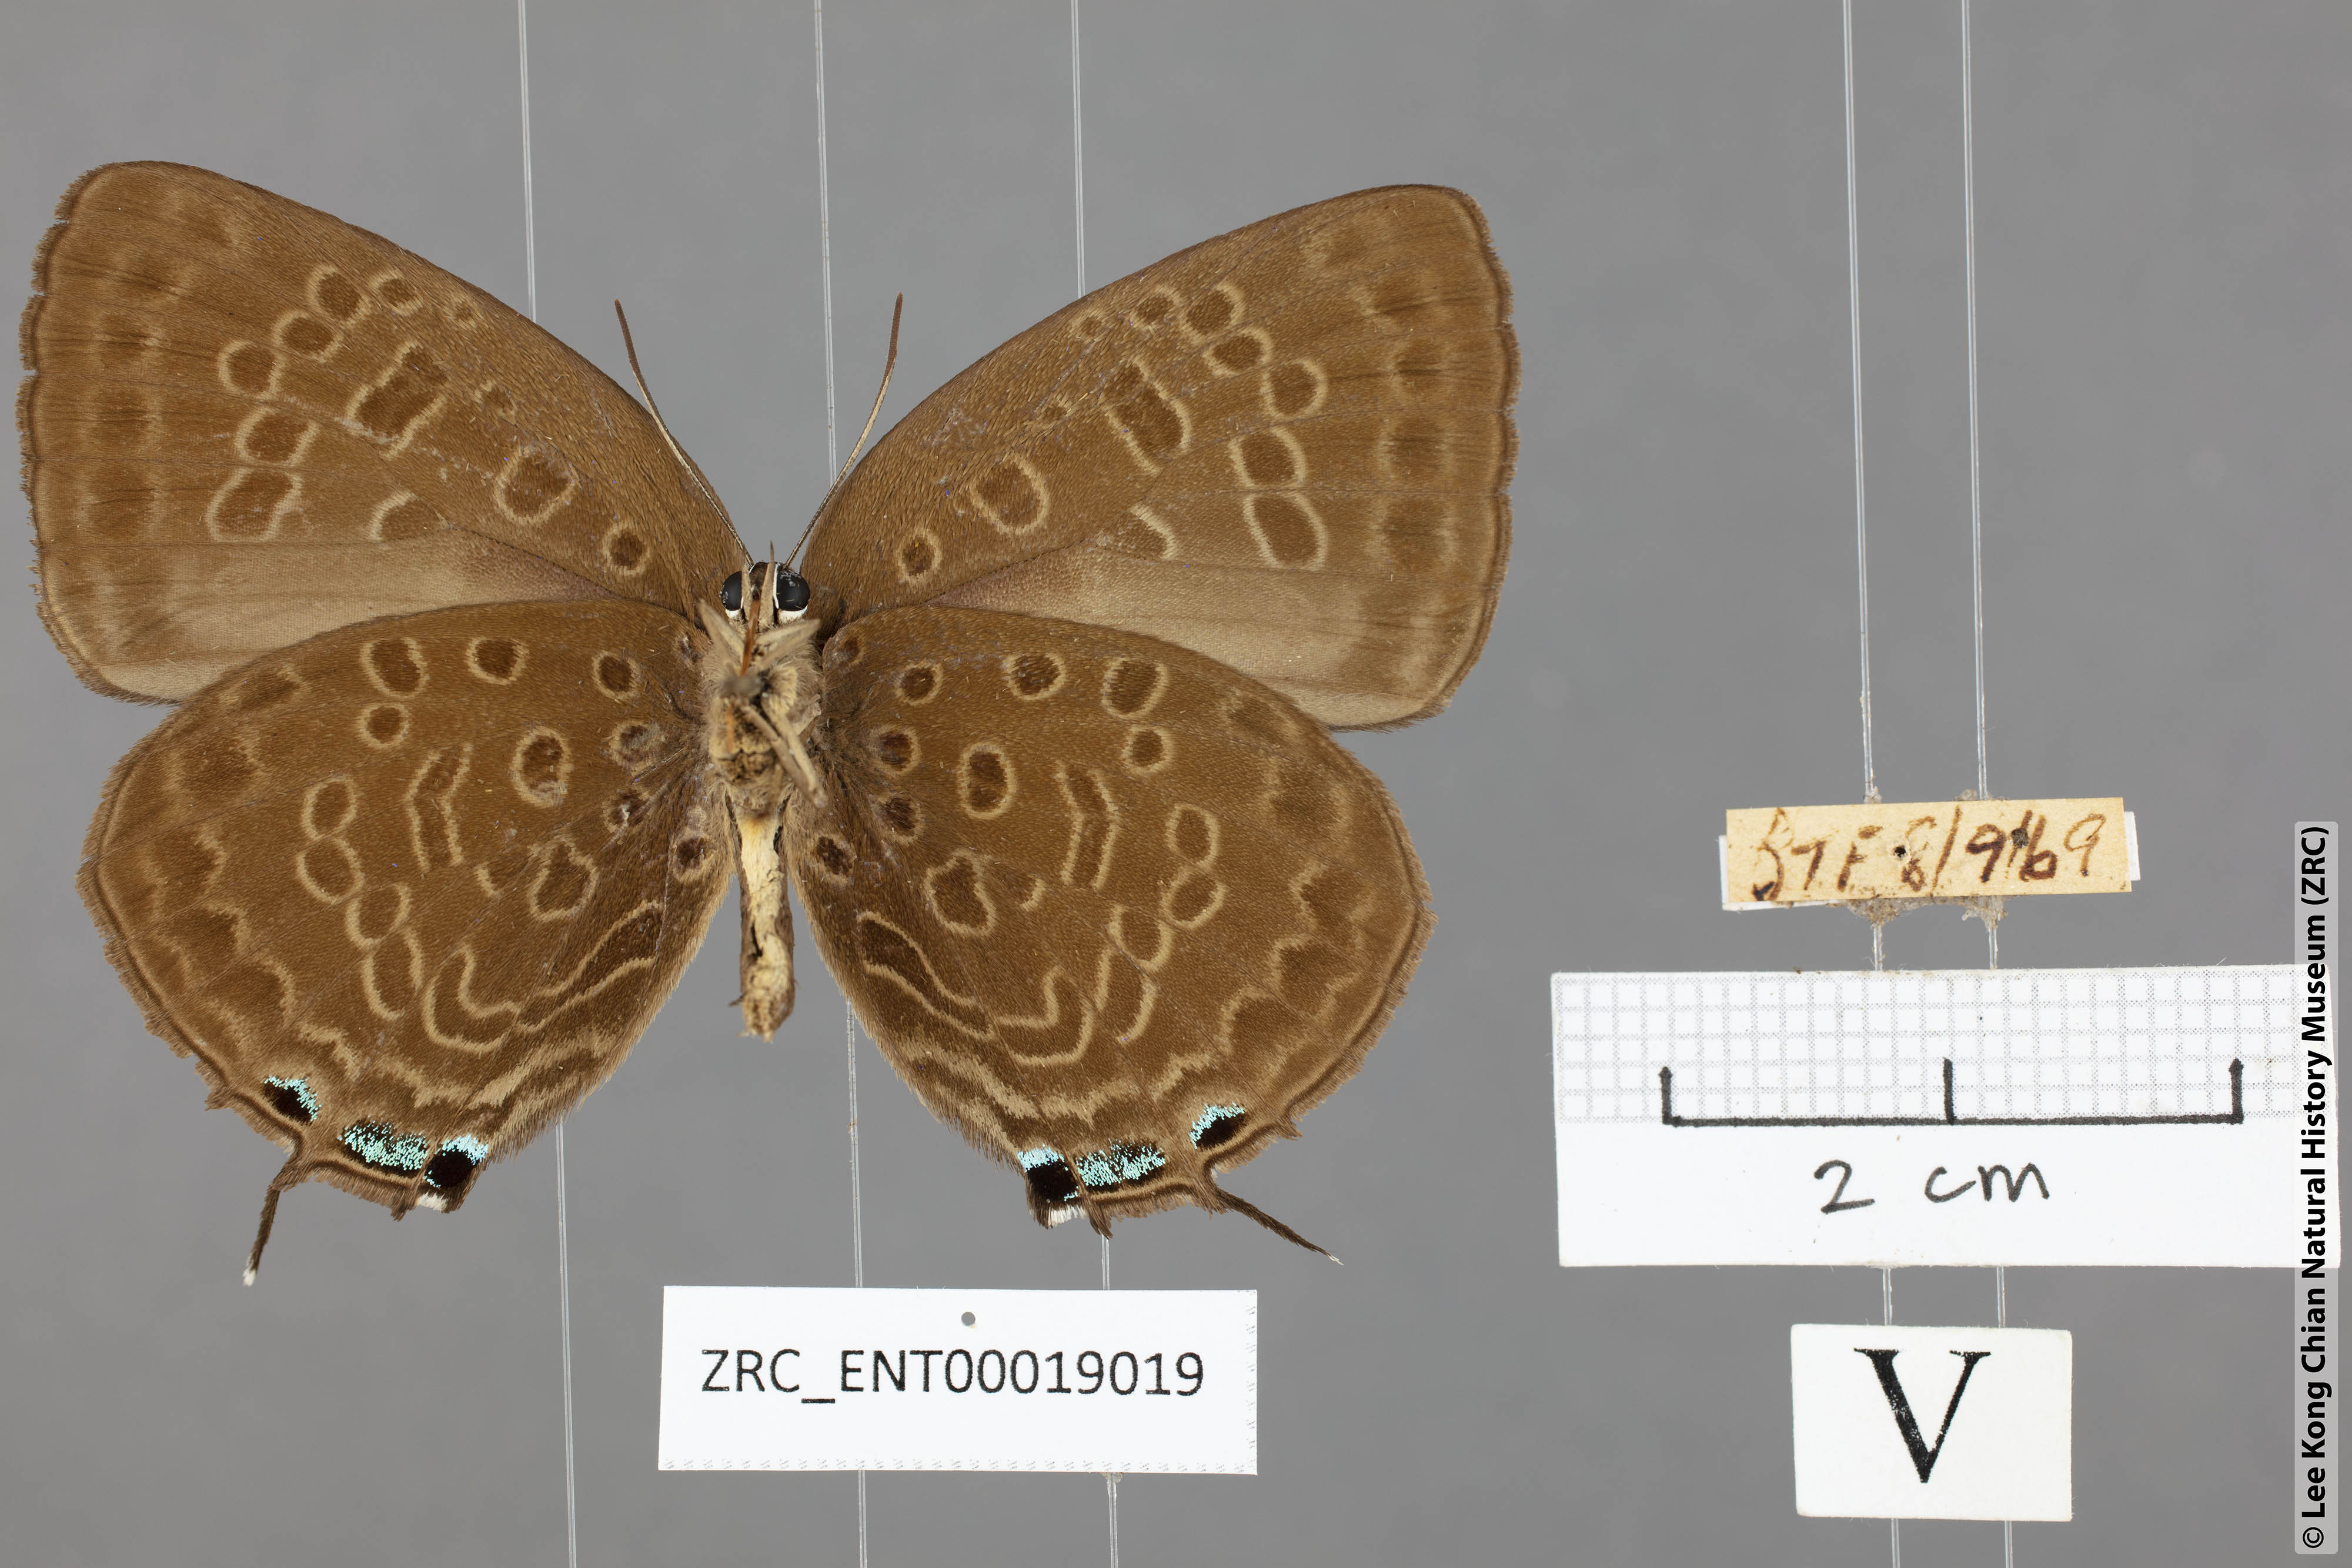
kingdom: Animalia
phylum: Arthropoda
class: Insecta
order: Lepidoptera
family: Lycaenidae
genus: Arhopala
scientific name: Arhopala aedias
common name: Large metallic oakblue
